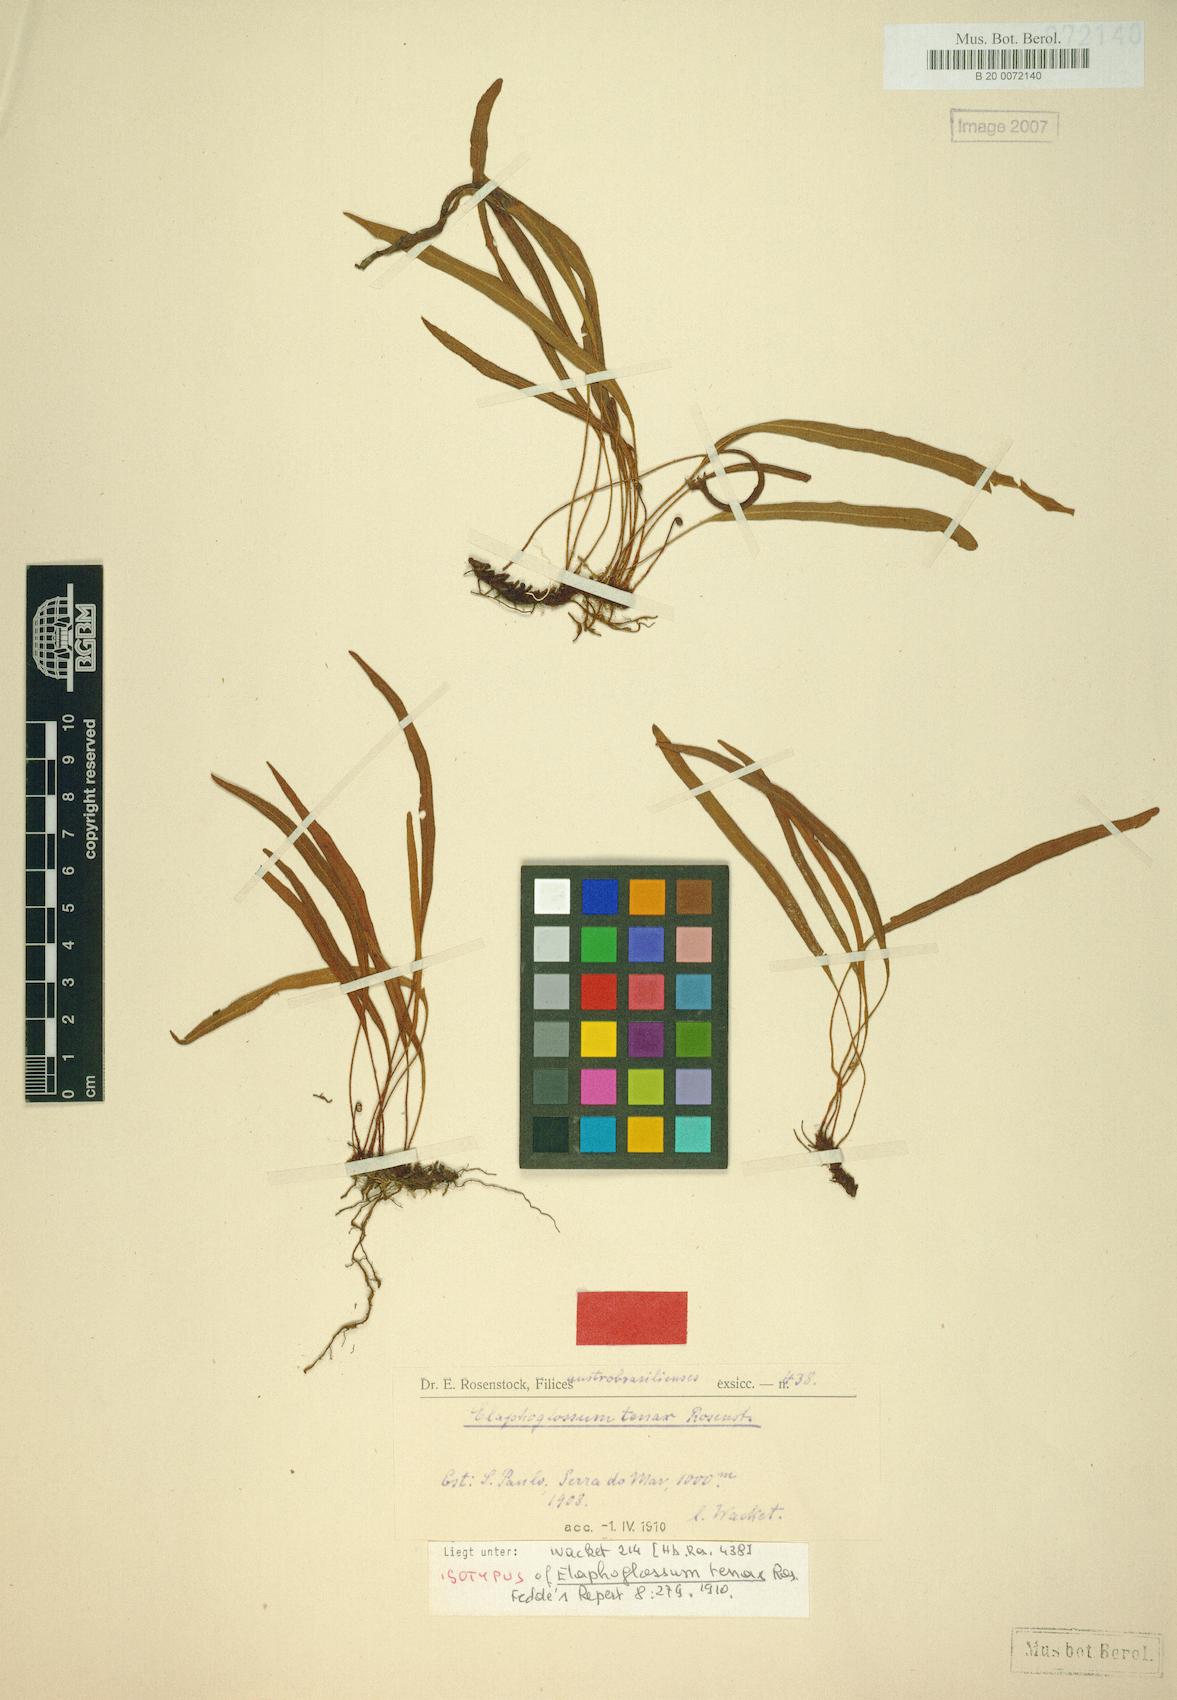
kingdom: Plantae
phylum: Tracheophyta
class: Polypodiopsida
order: Polypodiales
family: Dryopteridaceae
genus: Elaphoglossum
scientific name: Elaphoglossum tenax
